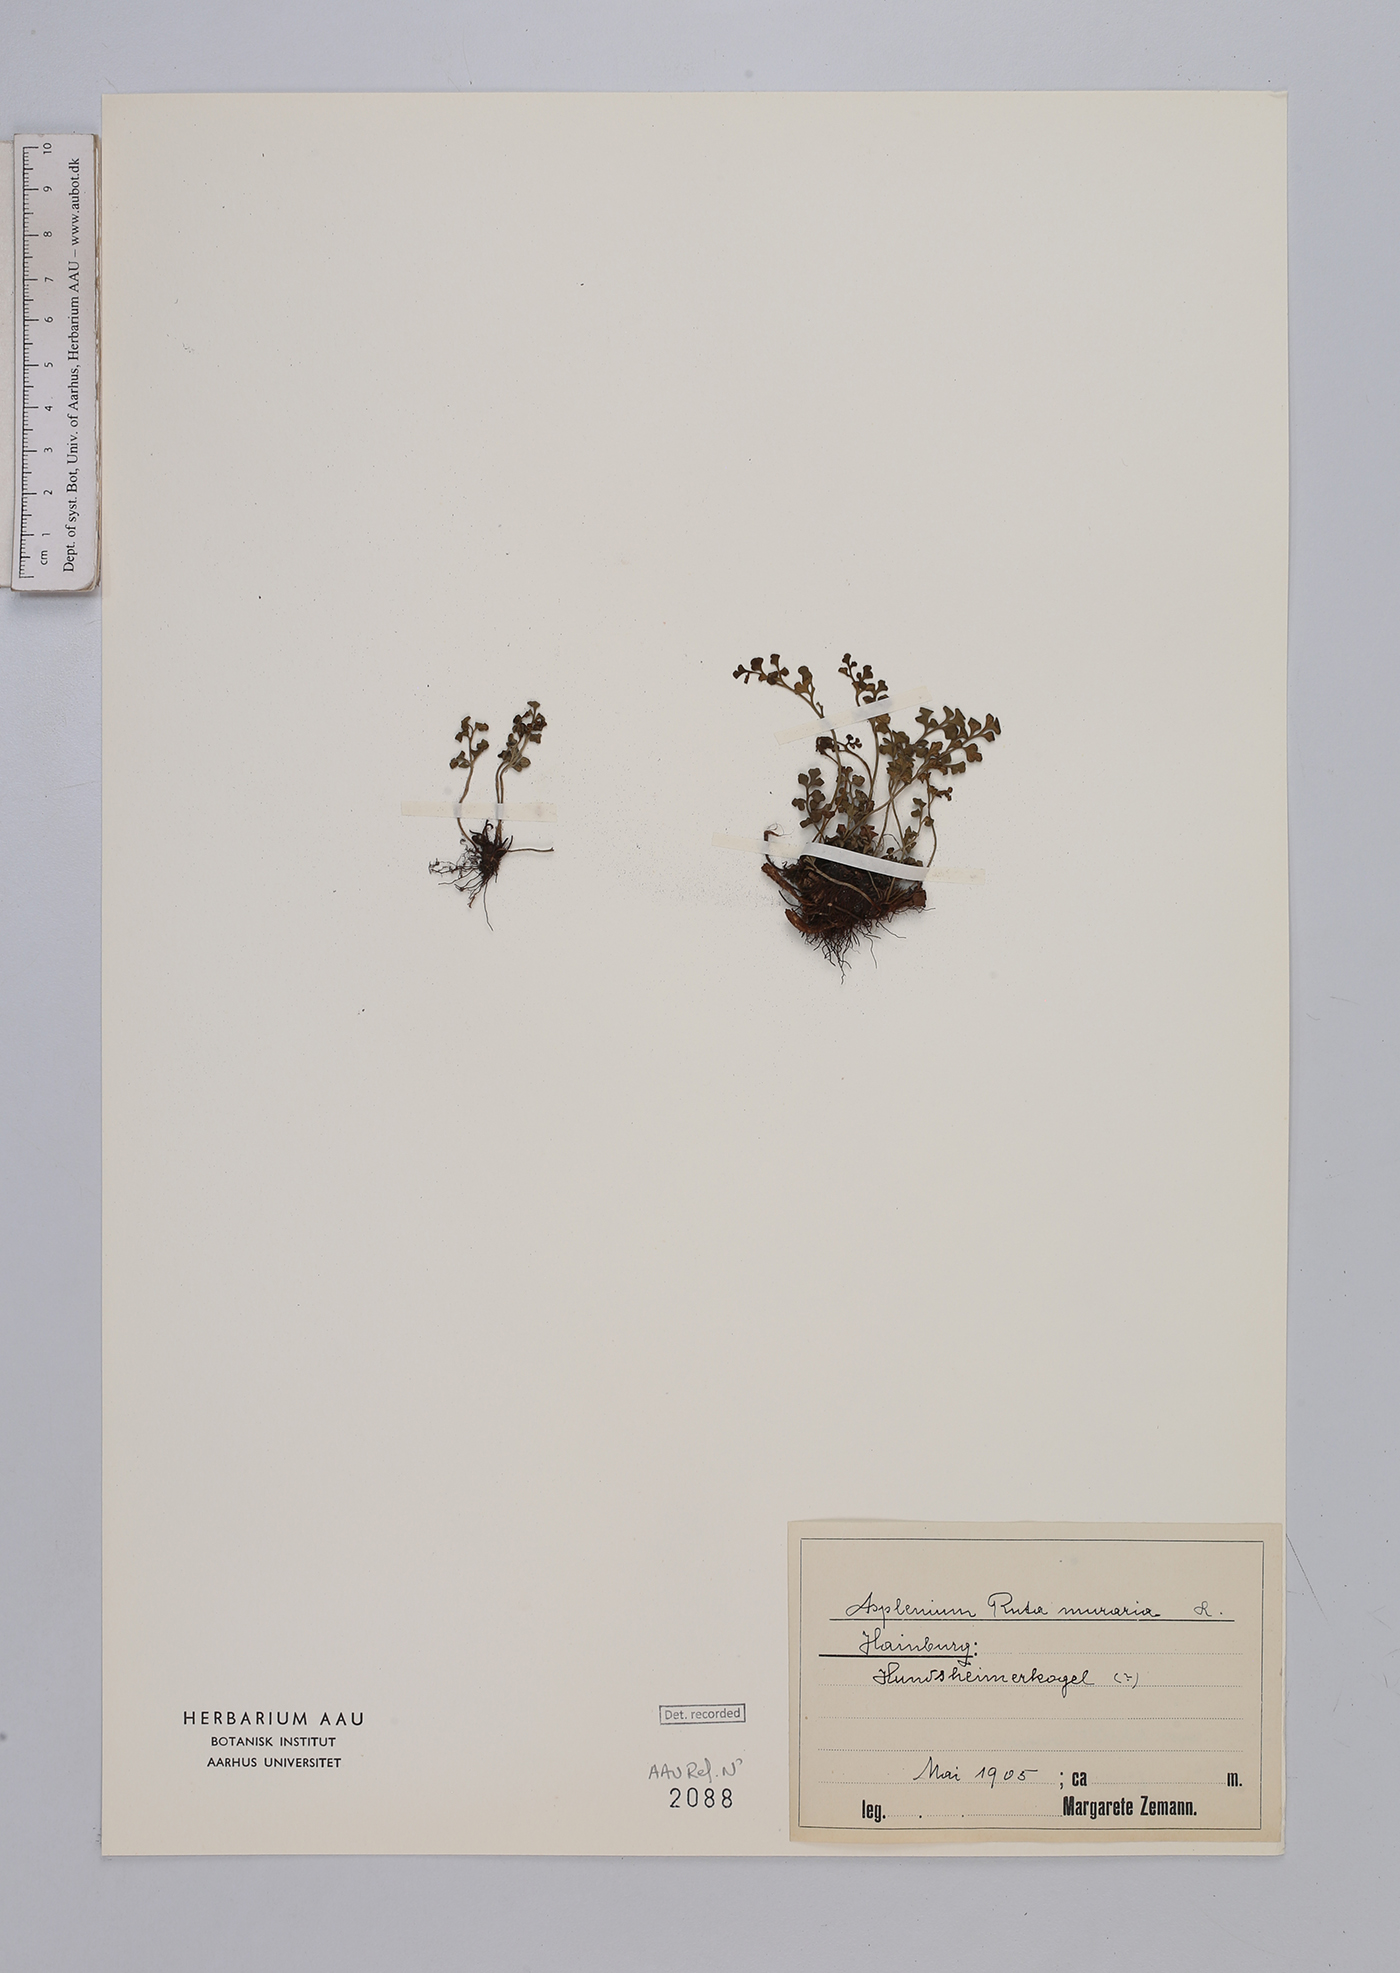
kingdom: Plantae
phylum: Tracheophyta
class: Polypodiopsida
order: Polypodiales
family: Aspleniaceae
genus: Asplenium
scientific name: Asplenium ruta-muraria
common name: Wall-rue
